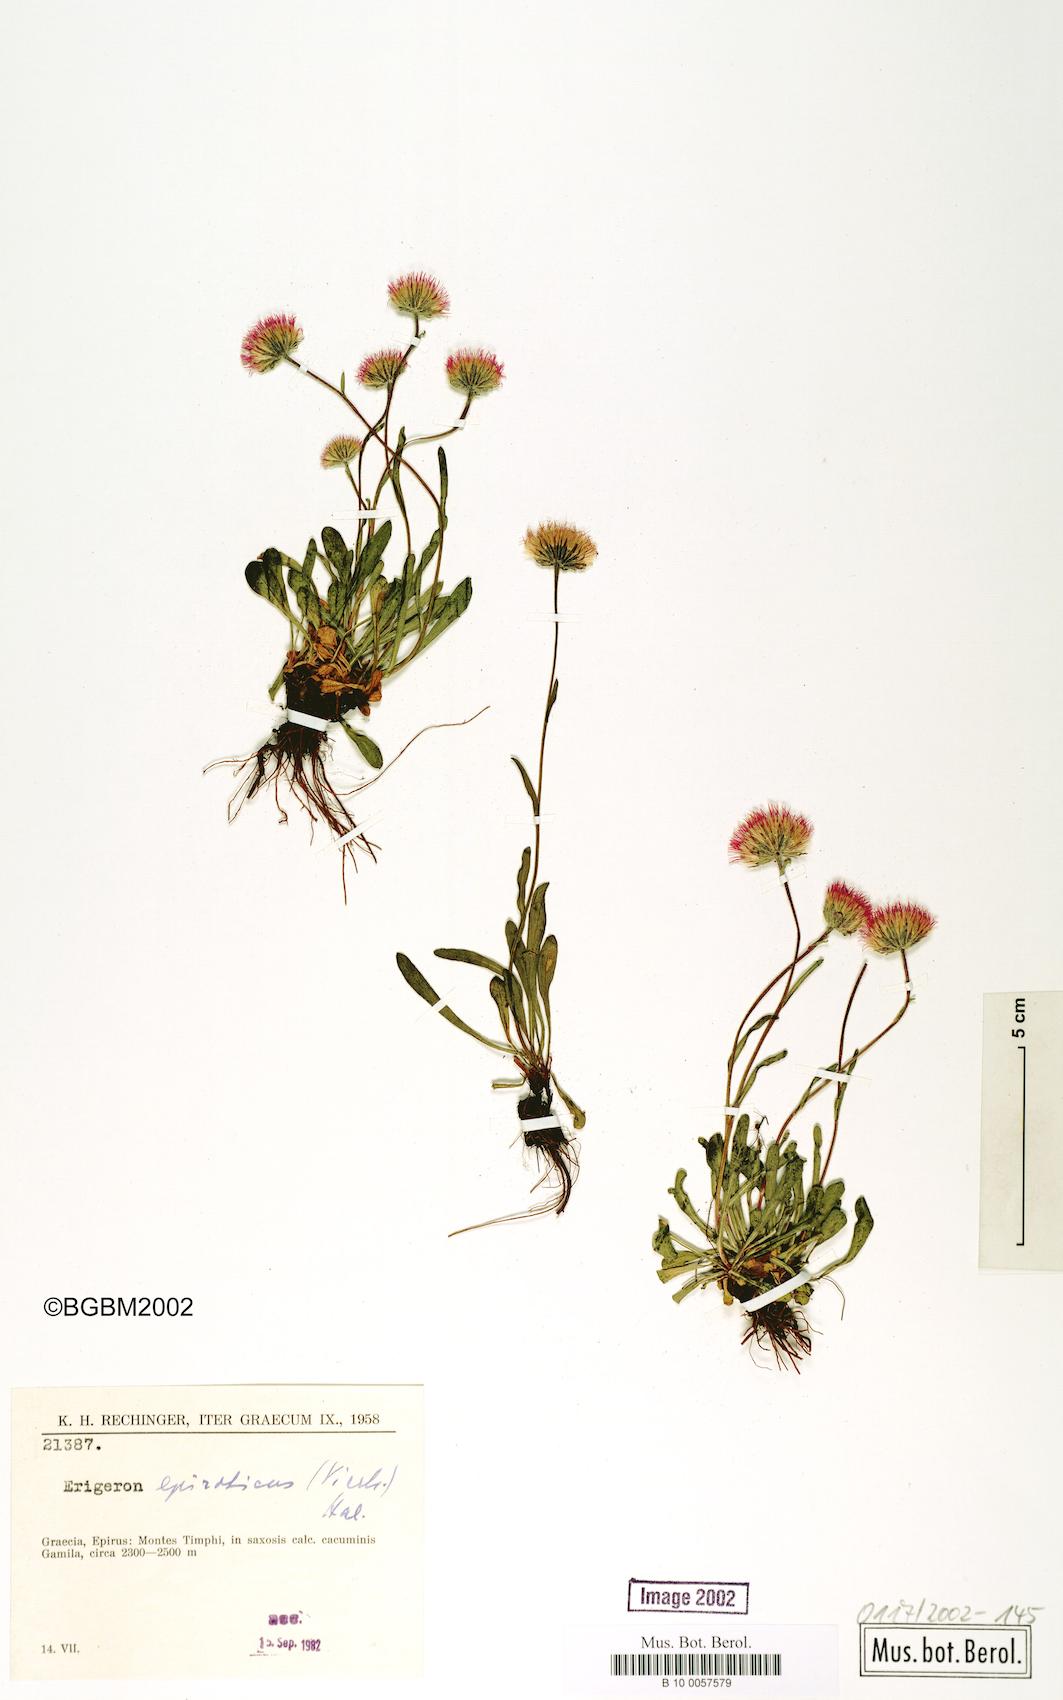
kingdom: Plantae
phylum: Tracheophyta
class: Magnoliopsida
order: Asterales
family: Asteraceae
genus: Erigeron
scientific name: Erigeron epiroticus
